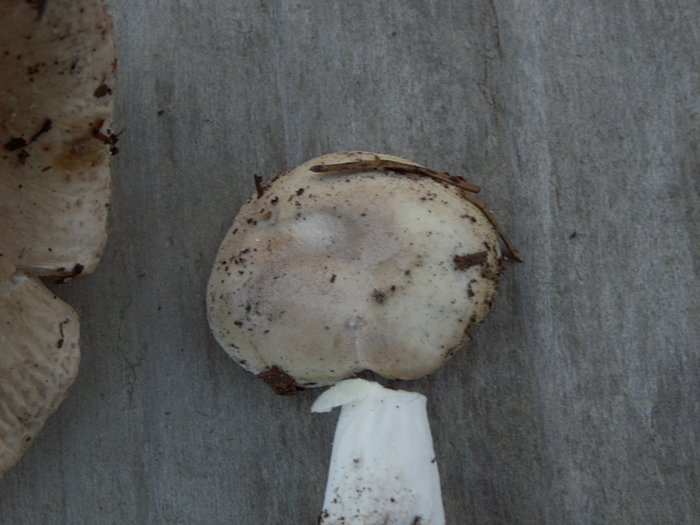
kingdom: Fungi
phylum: Basidiomycota
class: Agaricomycetes
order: Russulales
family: Russulaceae
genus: Russula
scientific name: Russula roseoaurantia
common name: kornet skørhat
